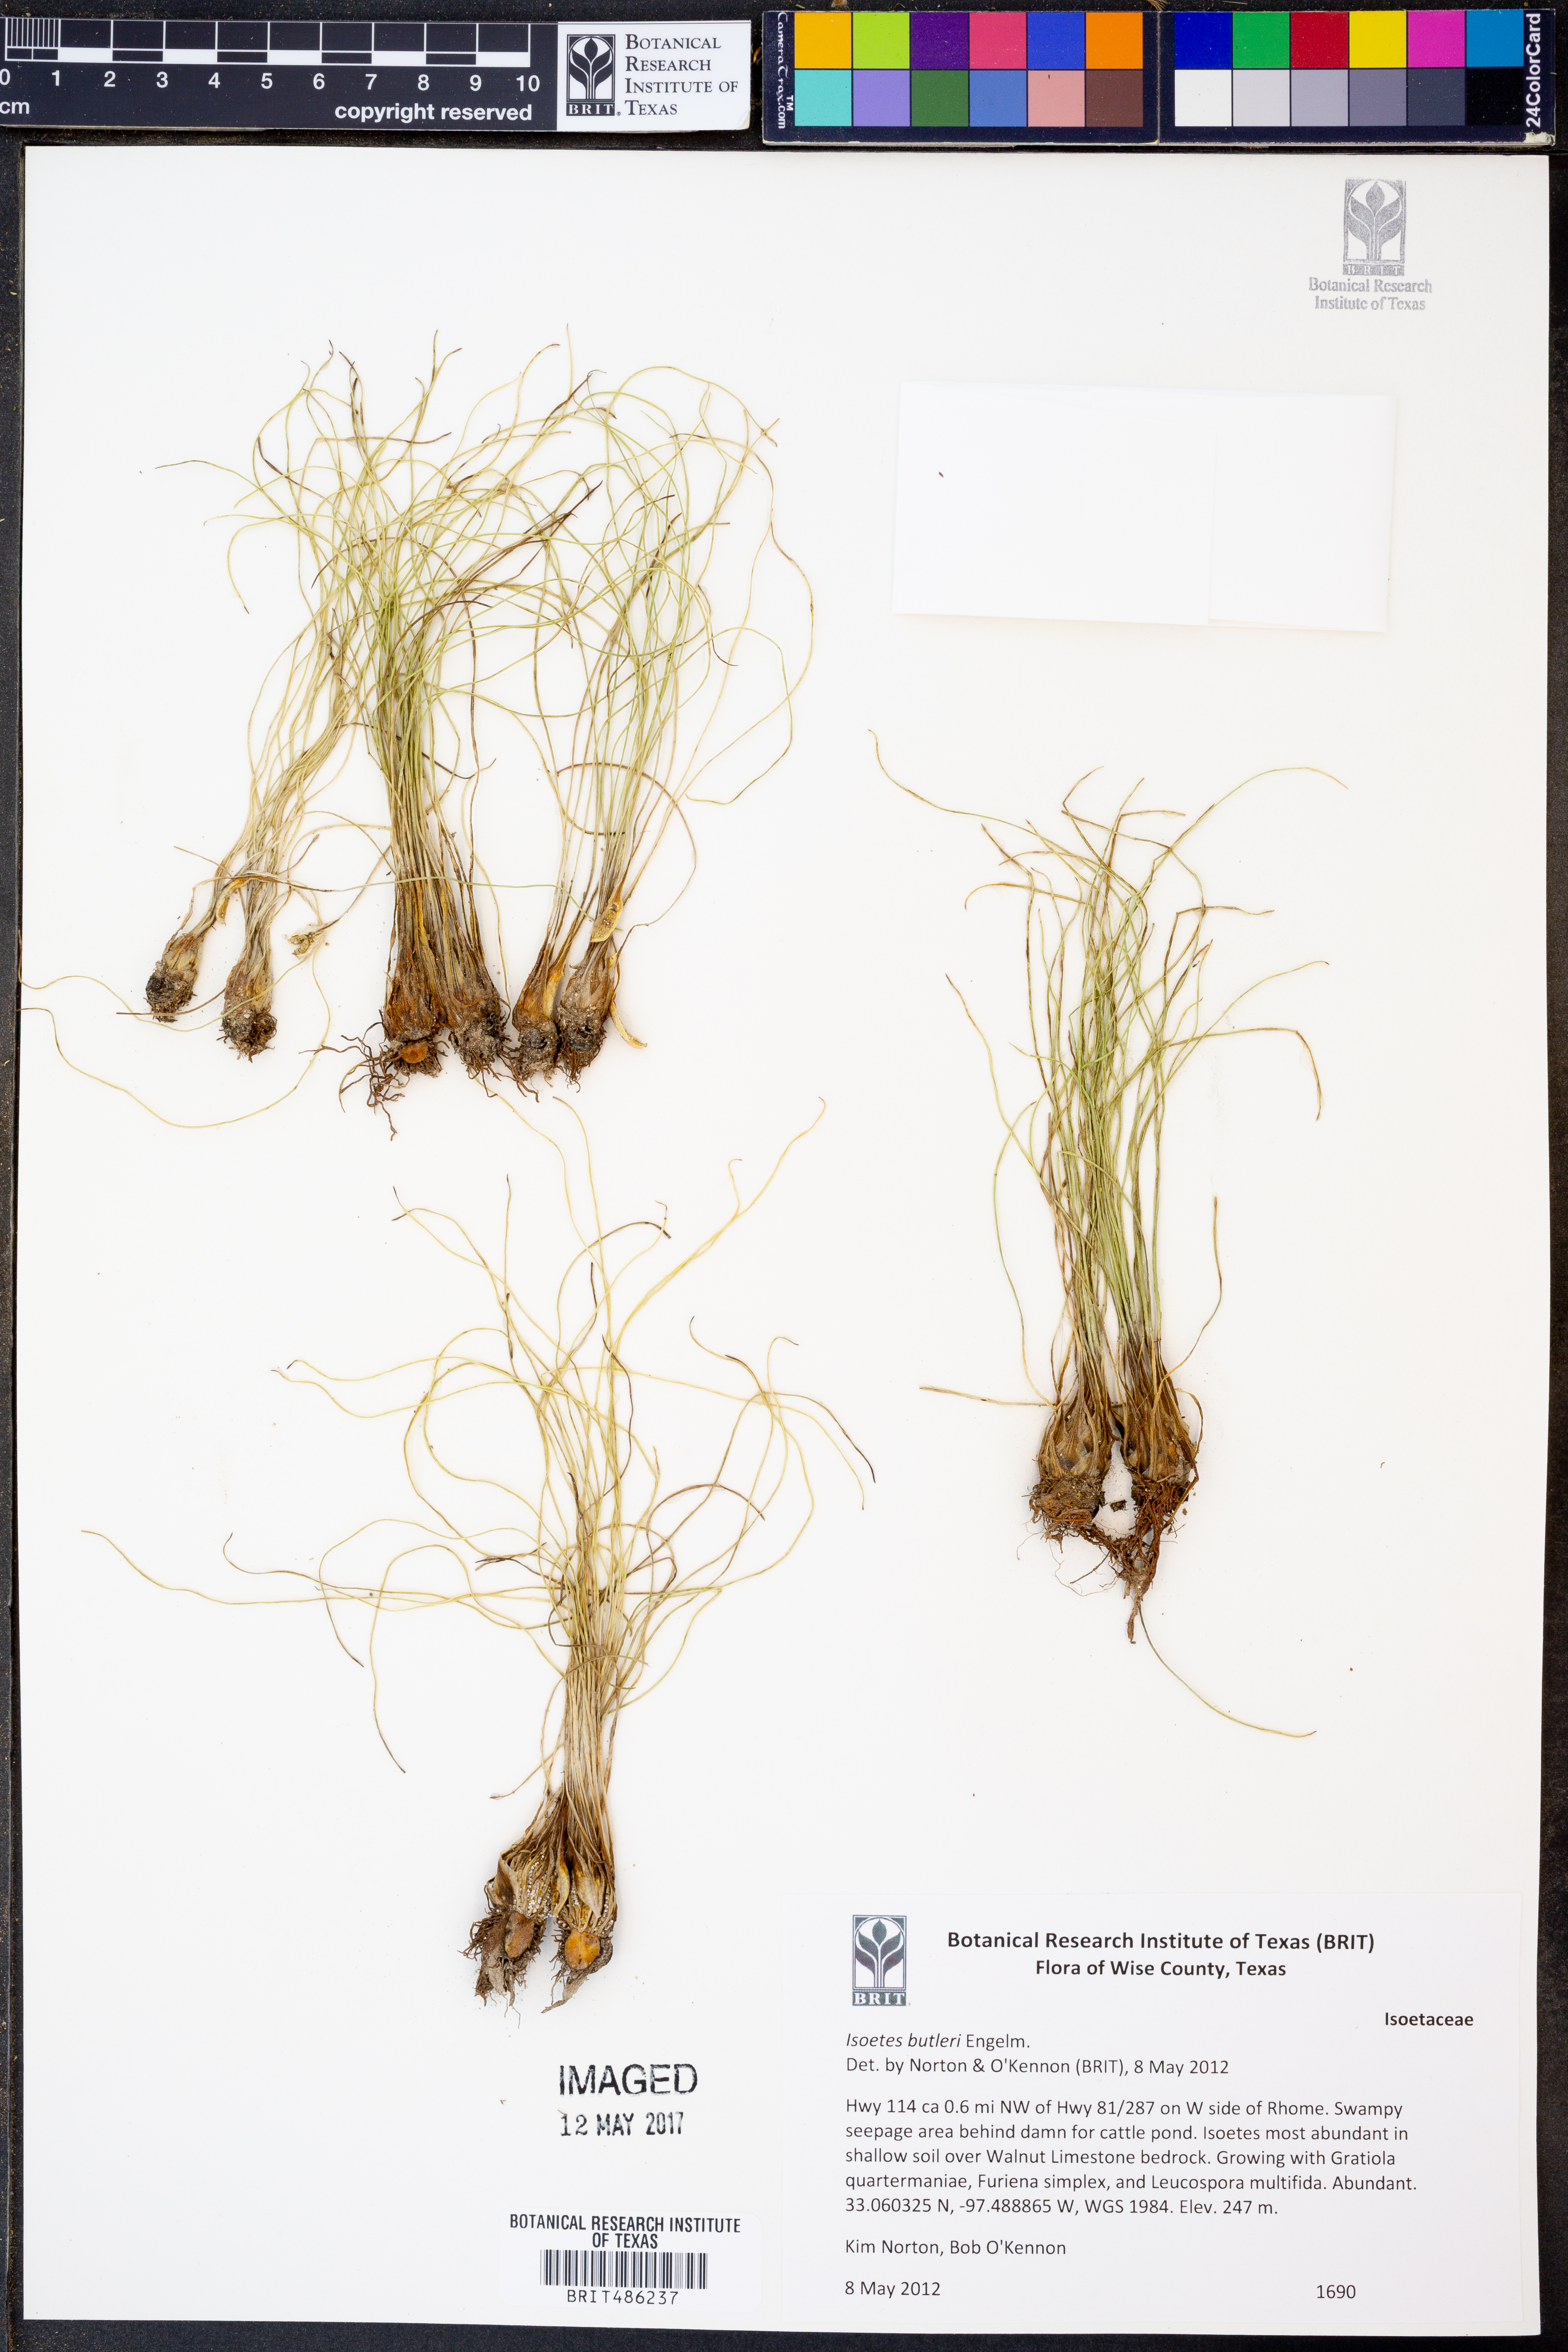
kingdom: Plantae
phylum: Tracheophyta
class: Lycopodiopsida
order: Isoetales
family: Isoetaceae
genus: Isoetes
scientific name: Isoetes butleri
